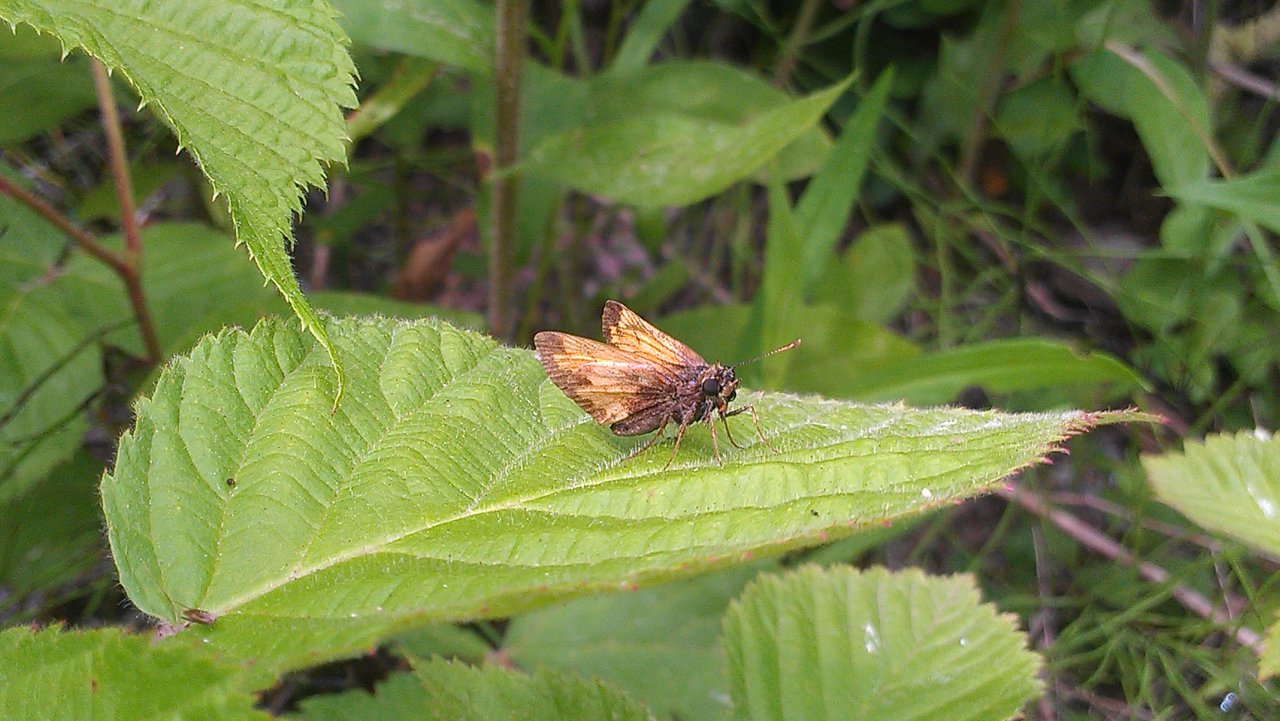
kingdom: Animalia
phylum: Arthropoda
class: Insecta
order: Lepidoptera
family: Hesperiidae
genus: Lon
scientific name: Lon hobomok
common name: Hobomok Skipper
